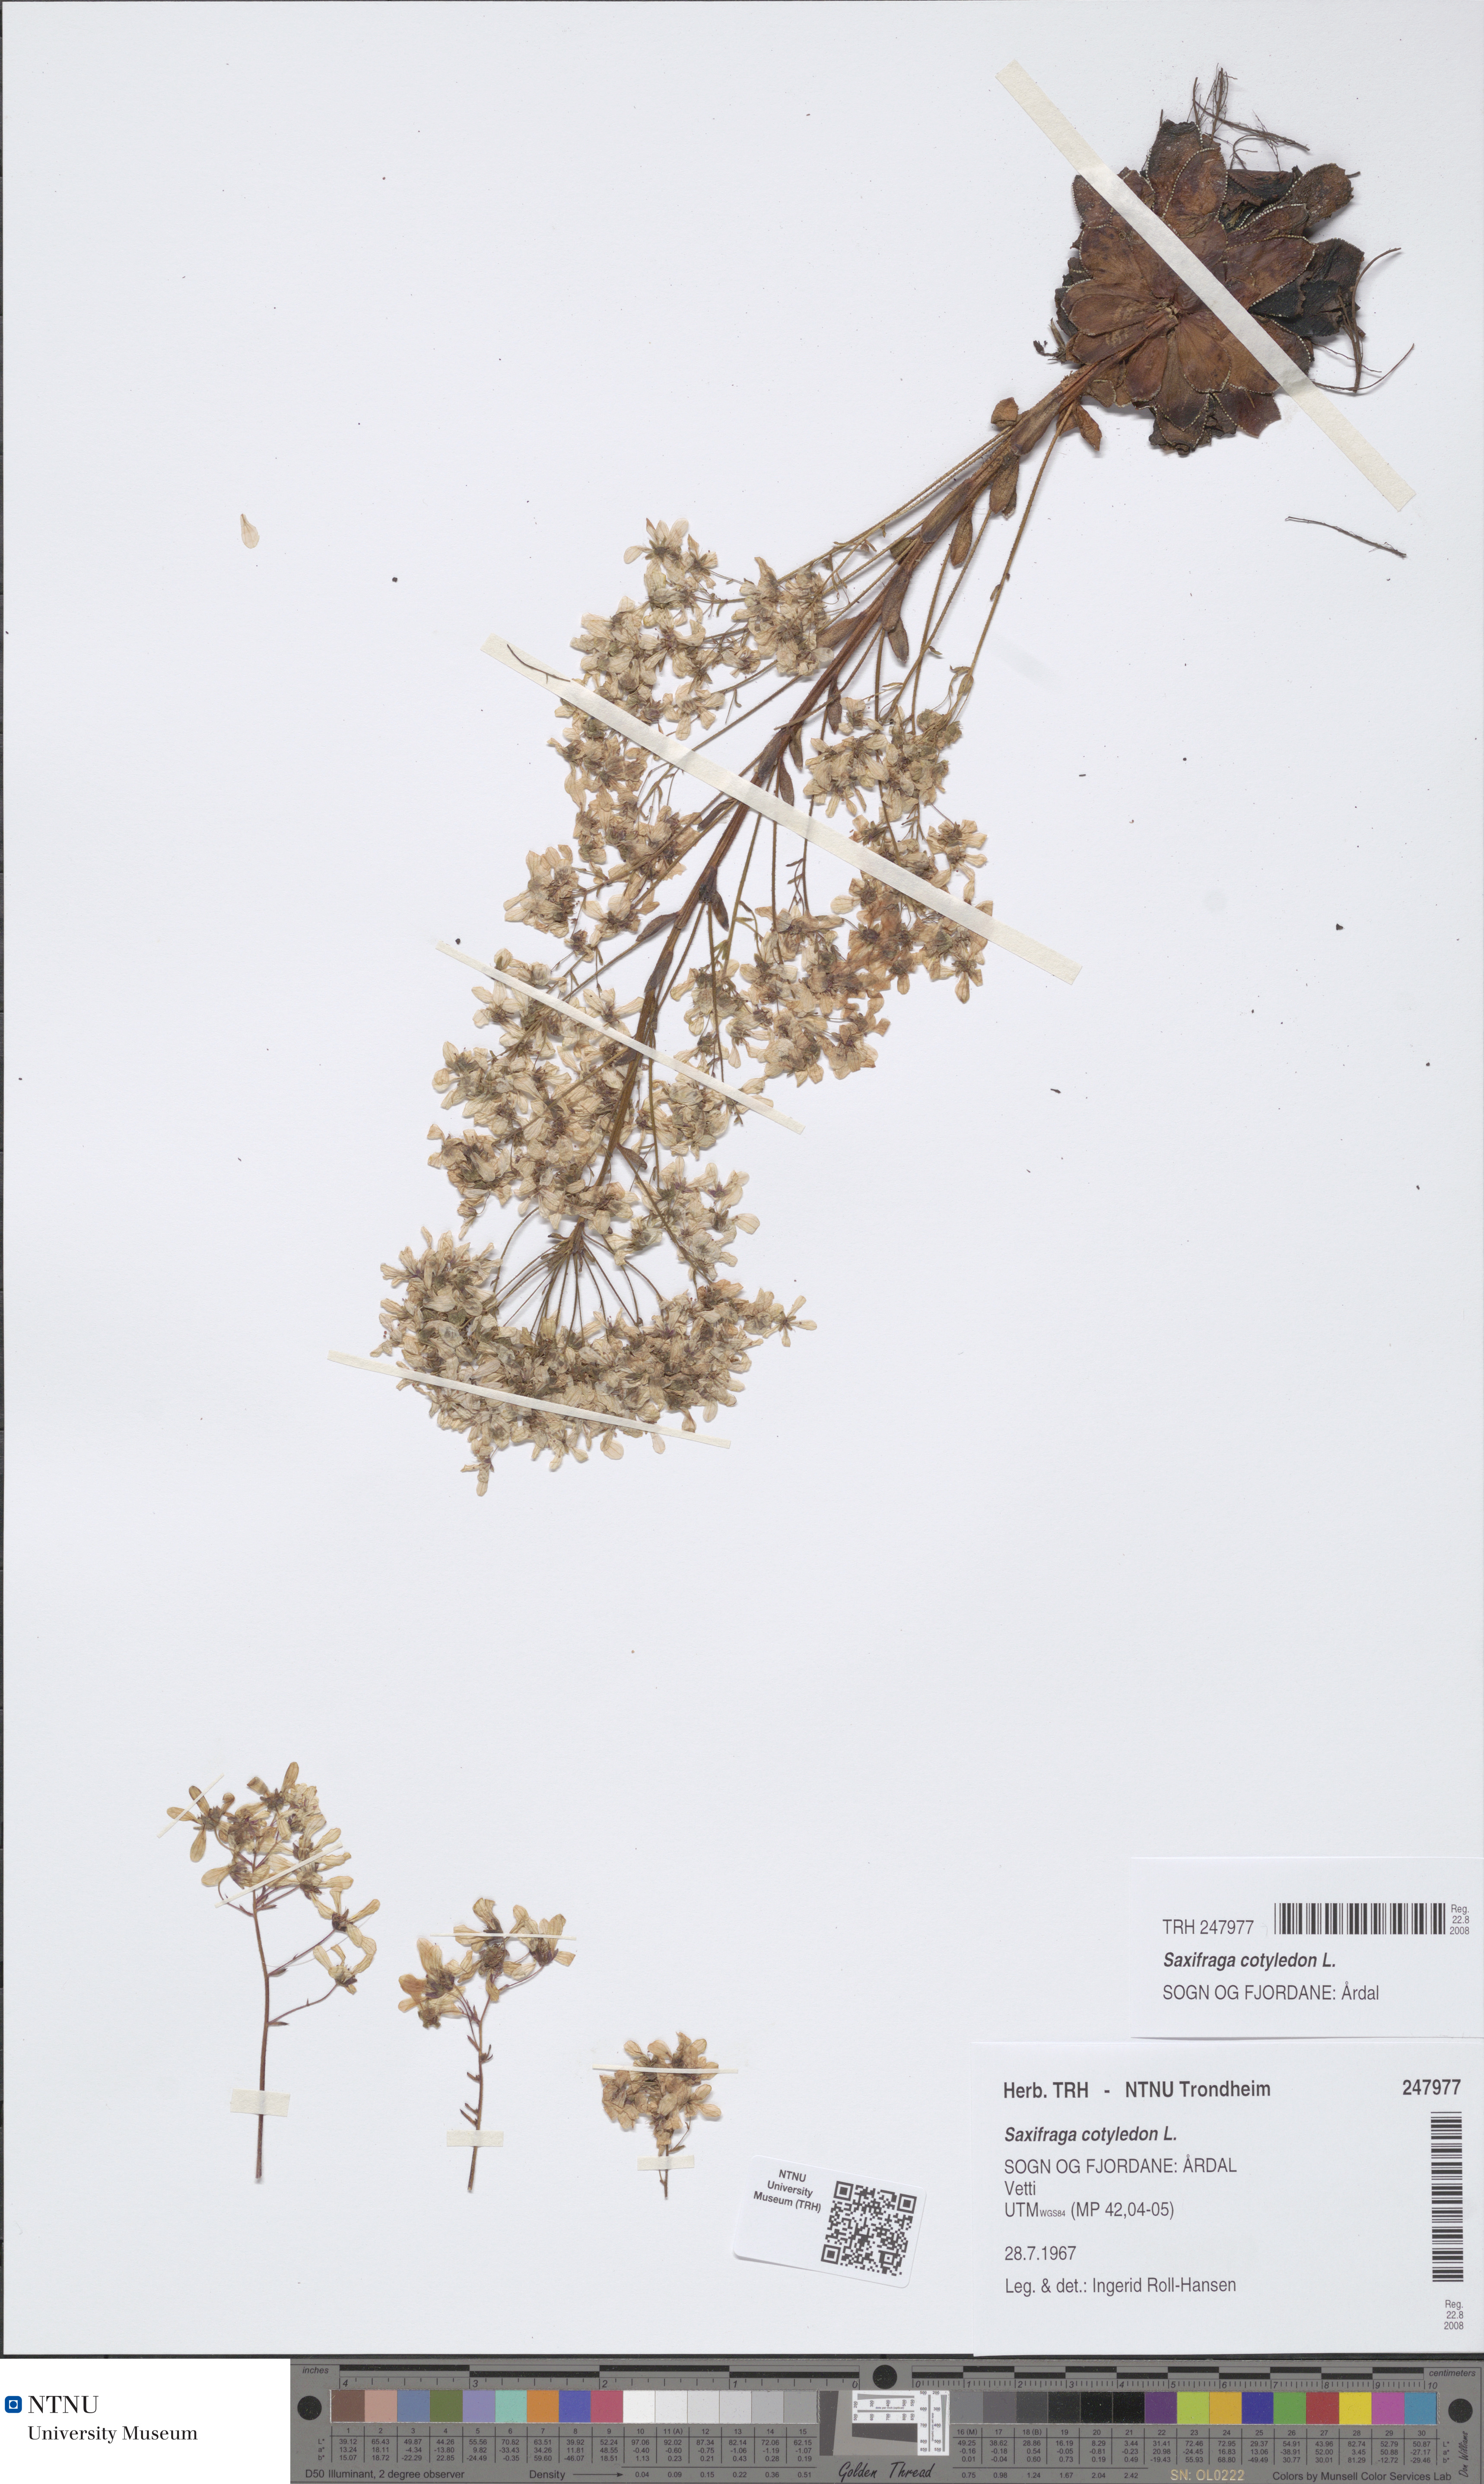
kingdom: Plantae
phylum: Tracheophyta
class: Magnoliopsida
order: Saxifragales
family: Saxifragaceae
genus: Saxifraga
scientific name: Saxifraga cotyledon
